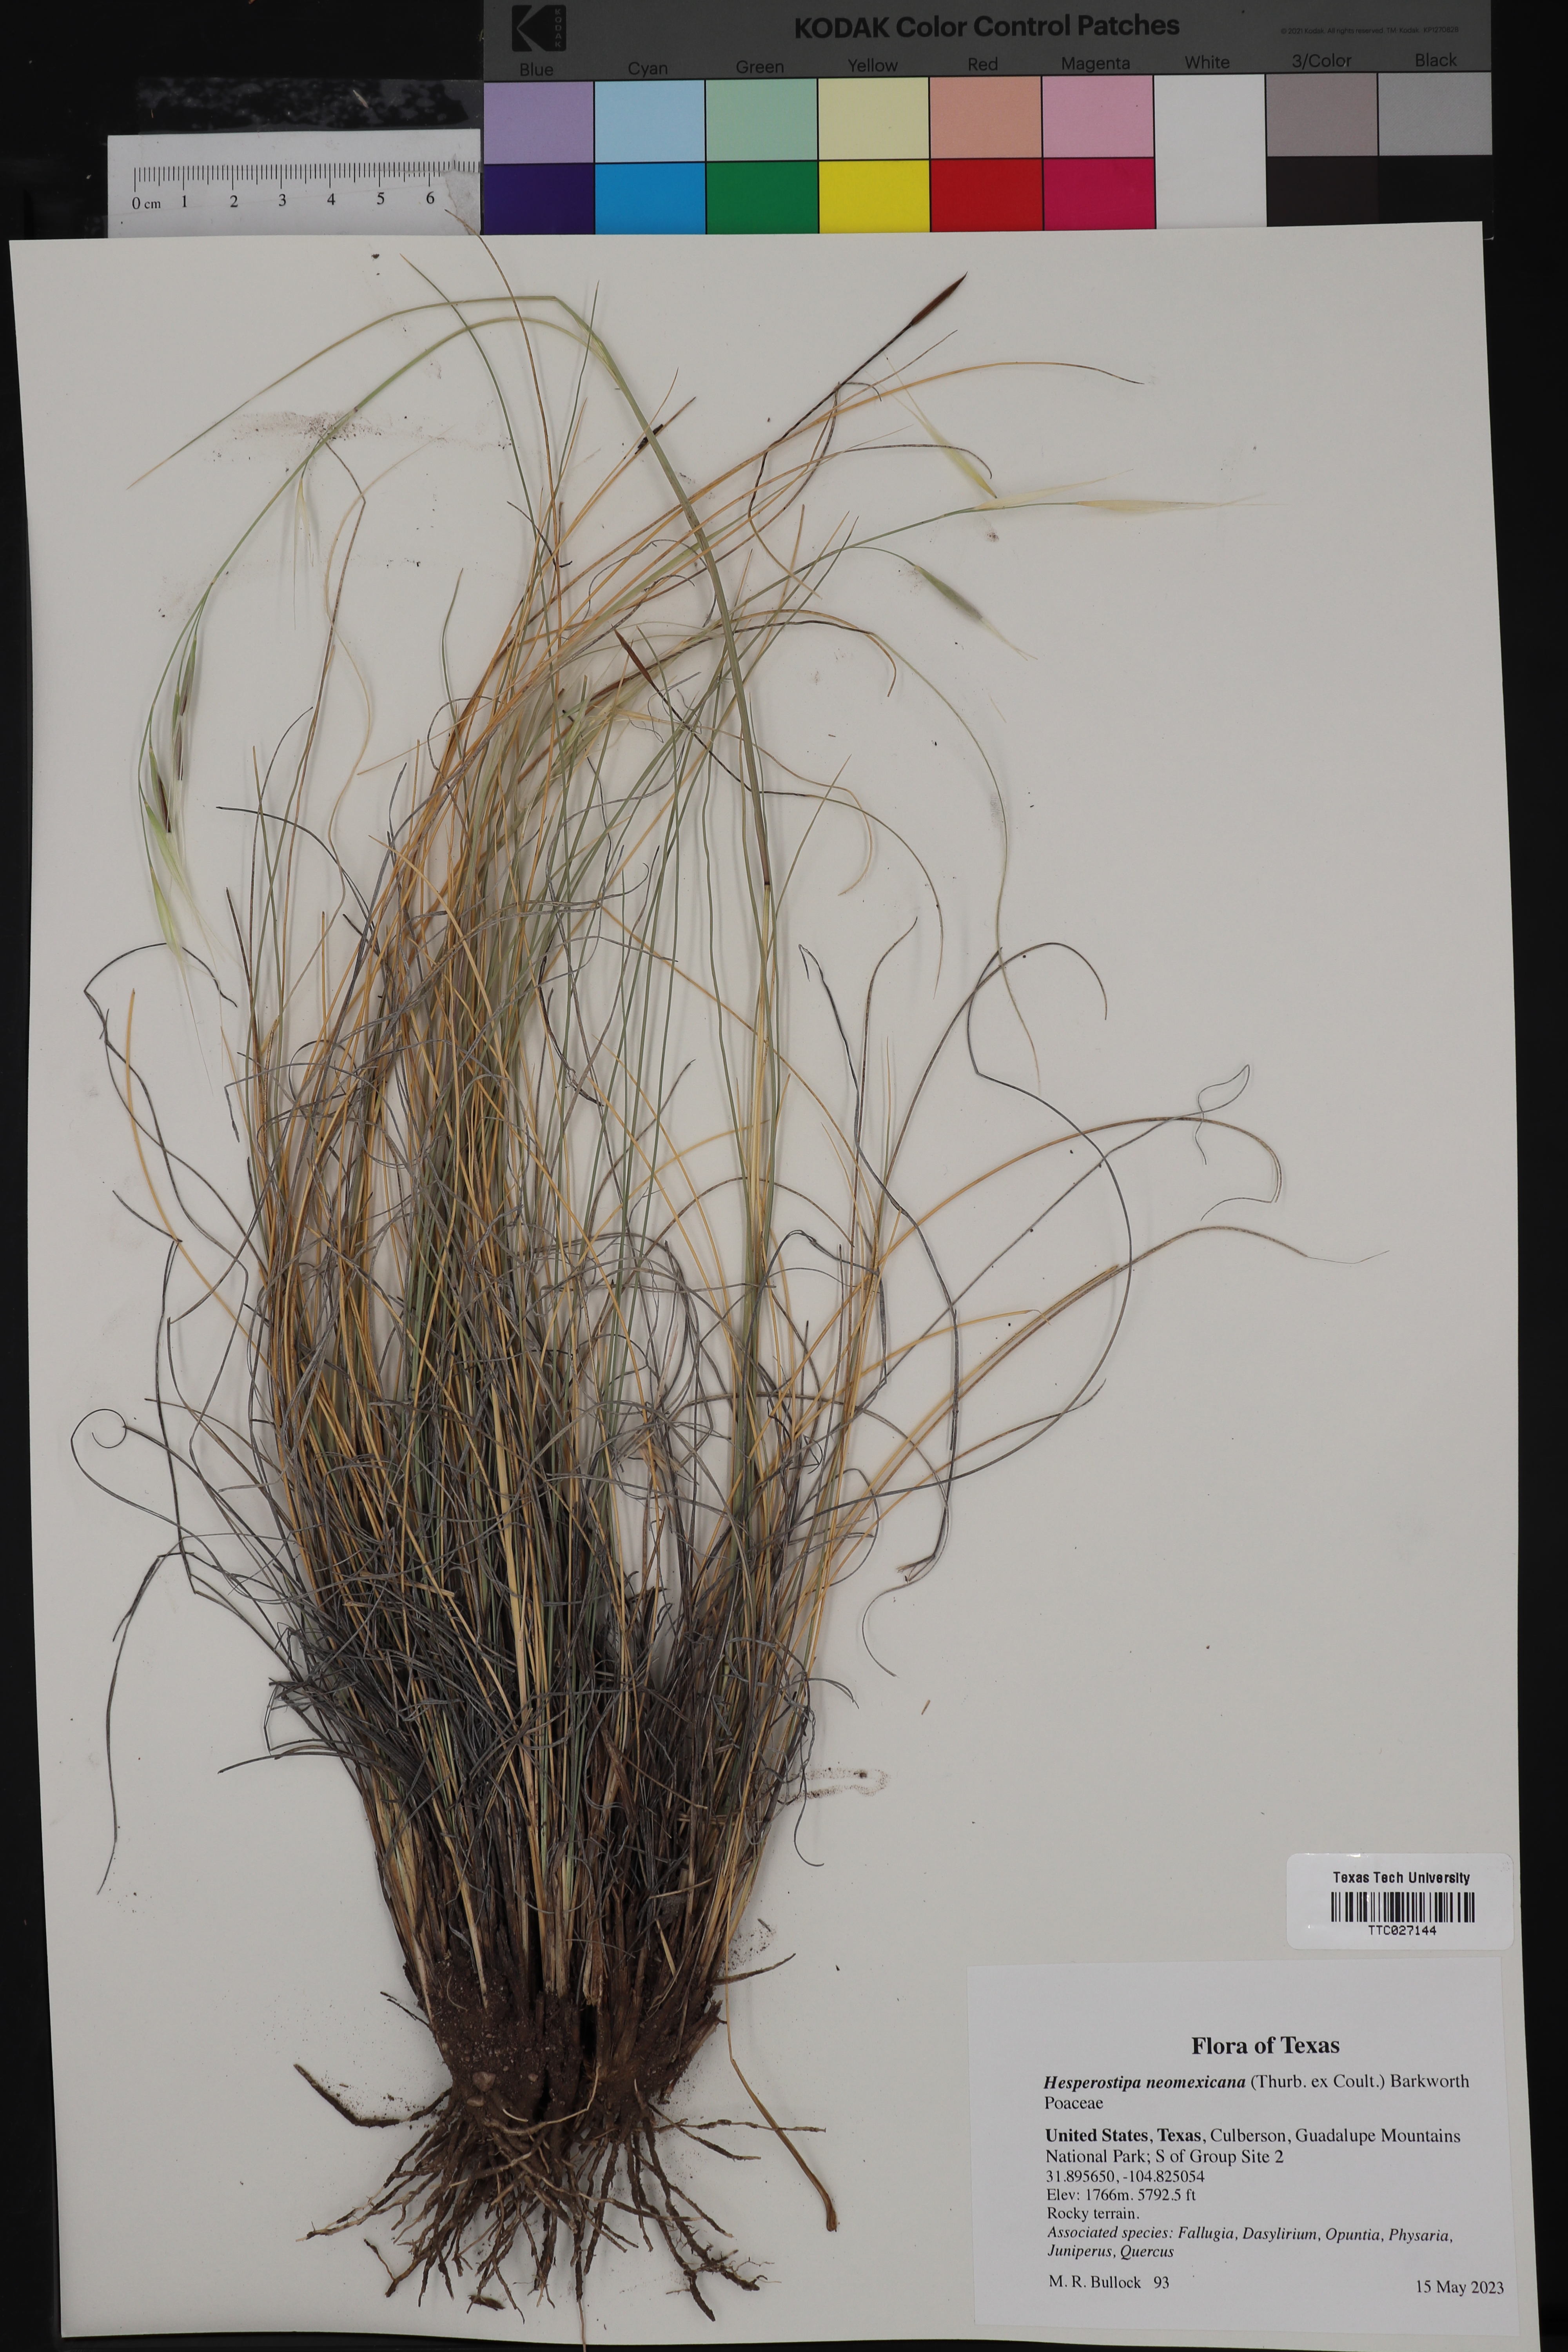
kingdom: Plantae
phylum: Tracheophyta
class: Liliopsida
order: Poales
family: Poaceae
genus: Hesperostipa
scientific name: Hesperostipa neomexicana
